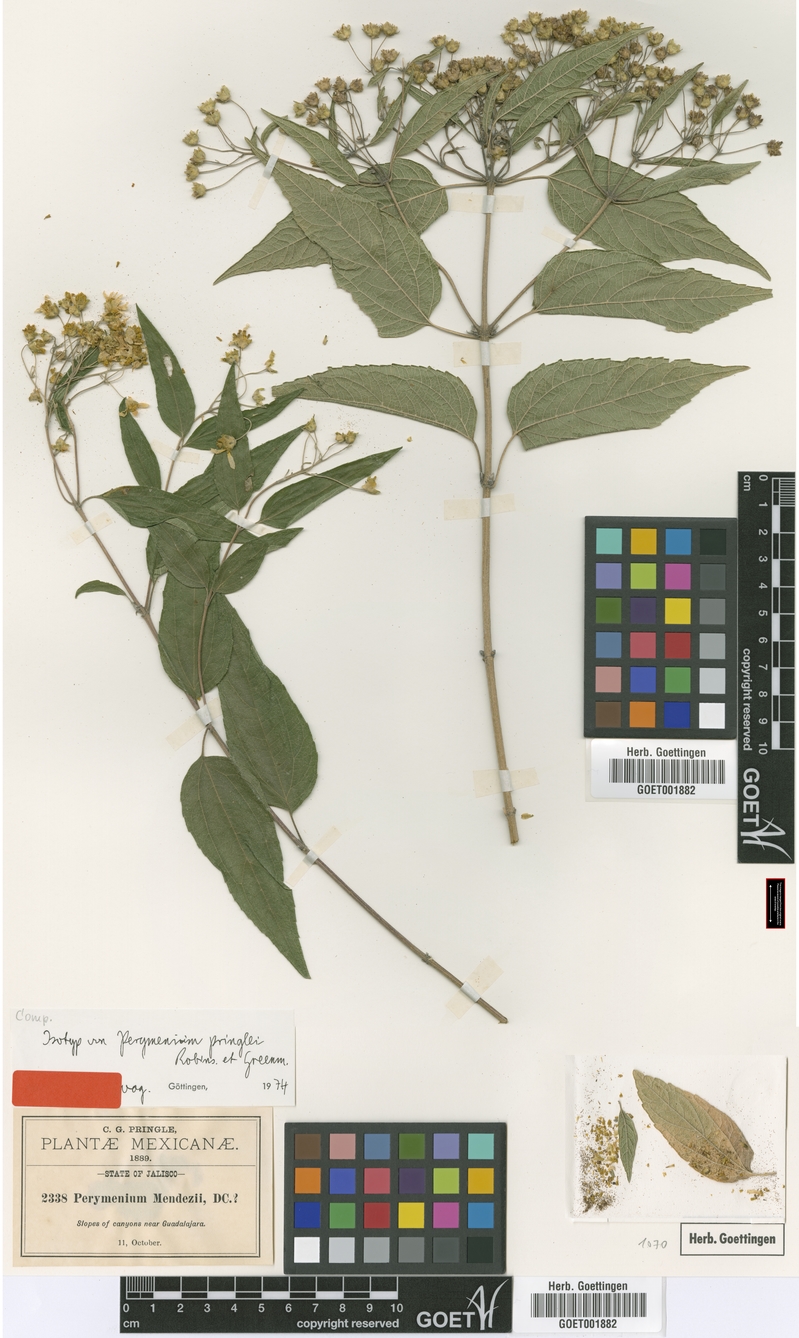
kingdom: Plantae
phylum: Tracheophyta
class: Magnoliopsida
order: Asterales
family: Asteraceae
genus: Perymenium
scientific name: Perymenium pringlei
